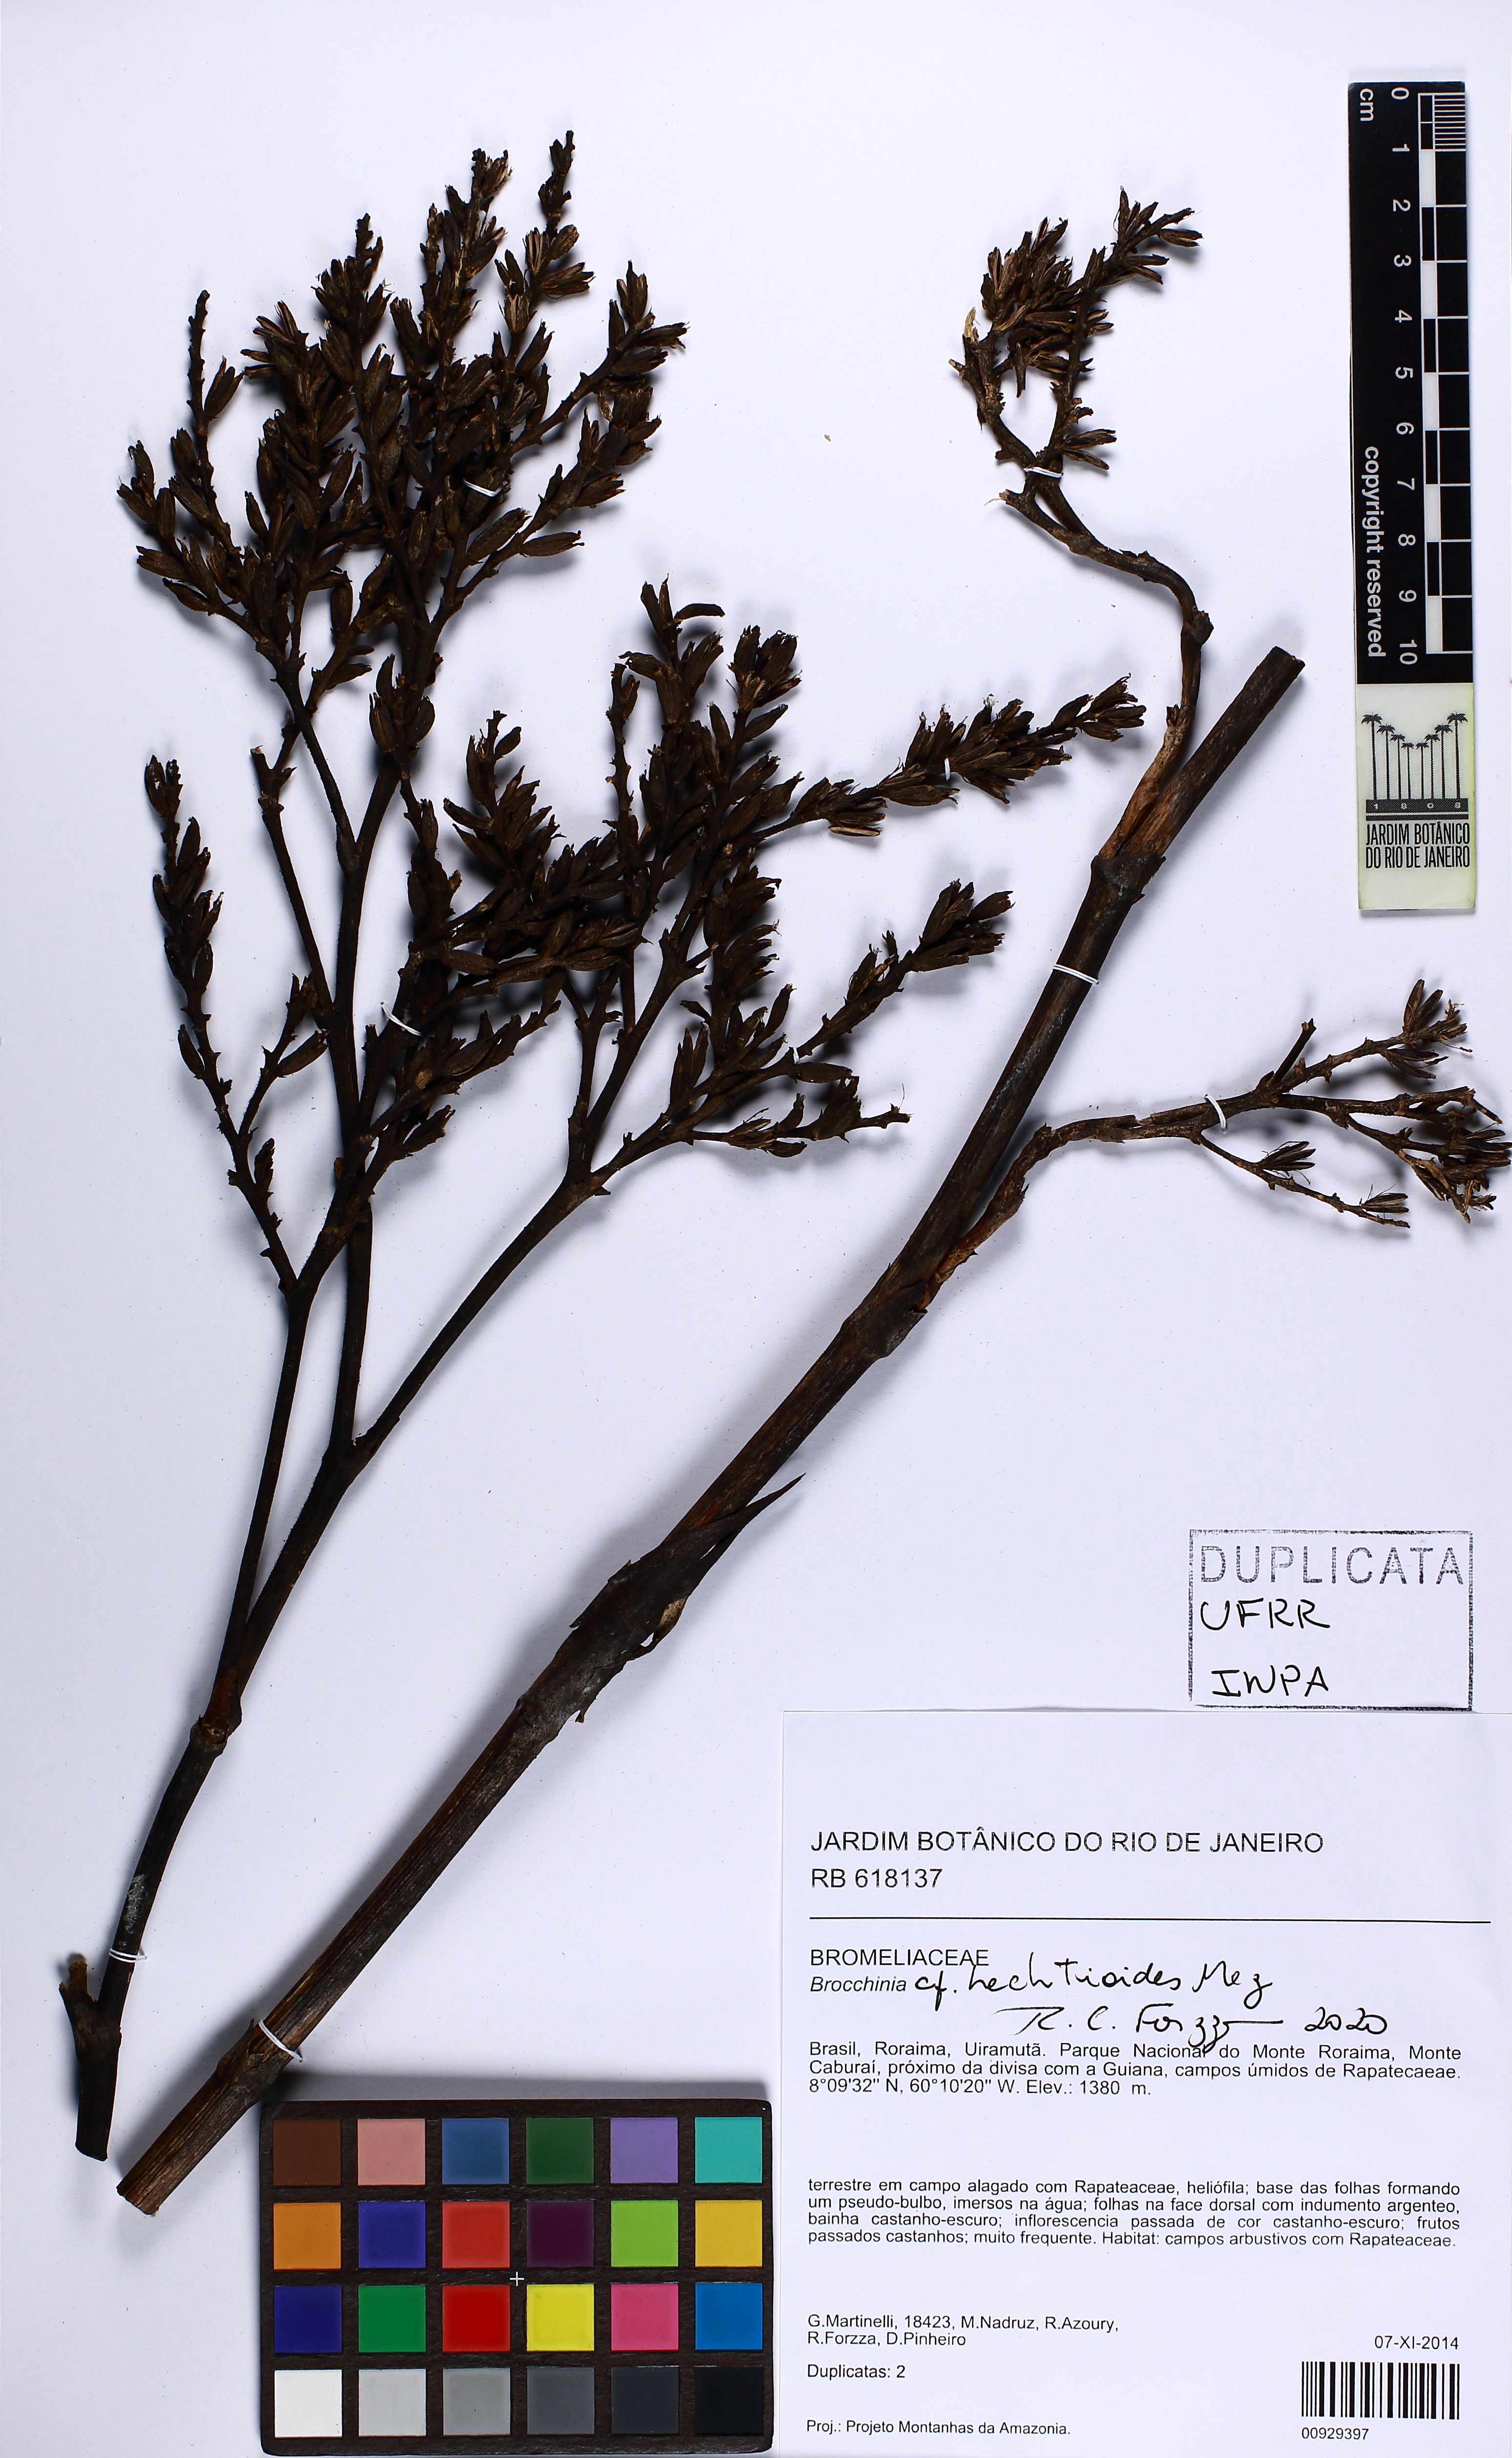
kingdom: Plantae
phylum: Tracheophyta
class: Liliopsida
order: Poales
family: Bromeliaceae
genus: Brocchinia
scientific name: Brocchinia hechtioides
